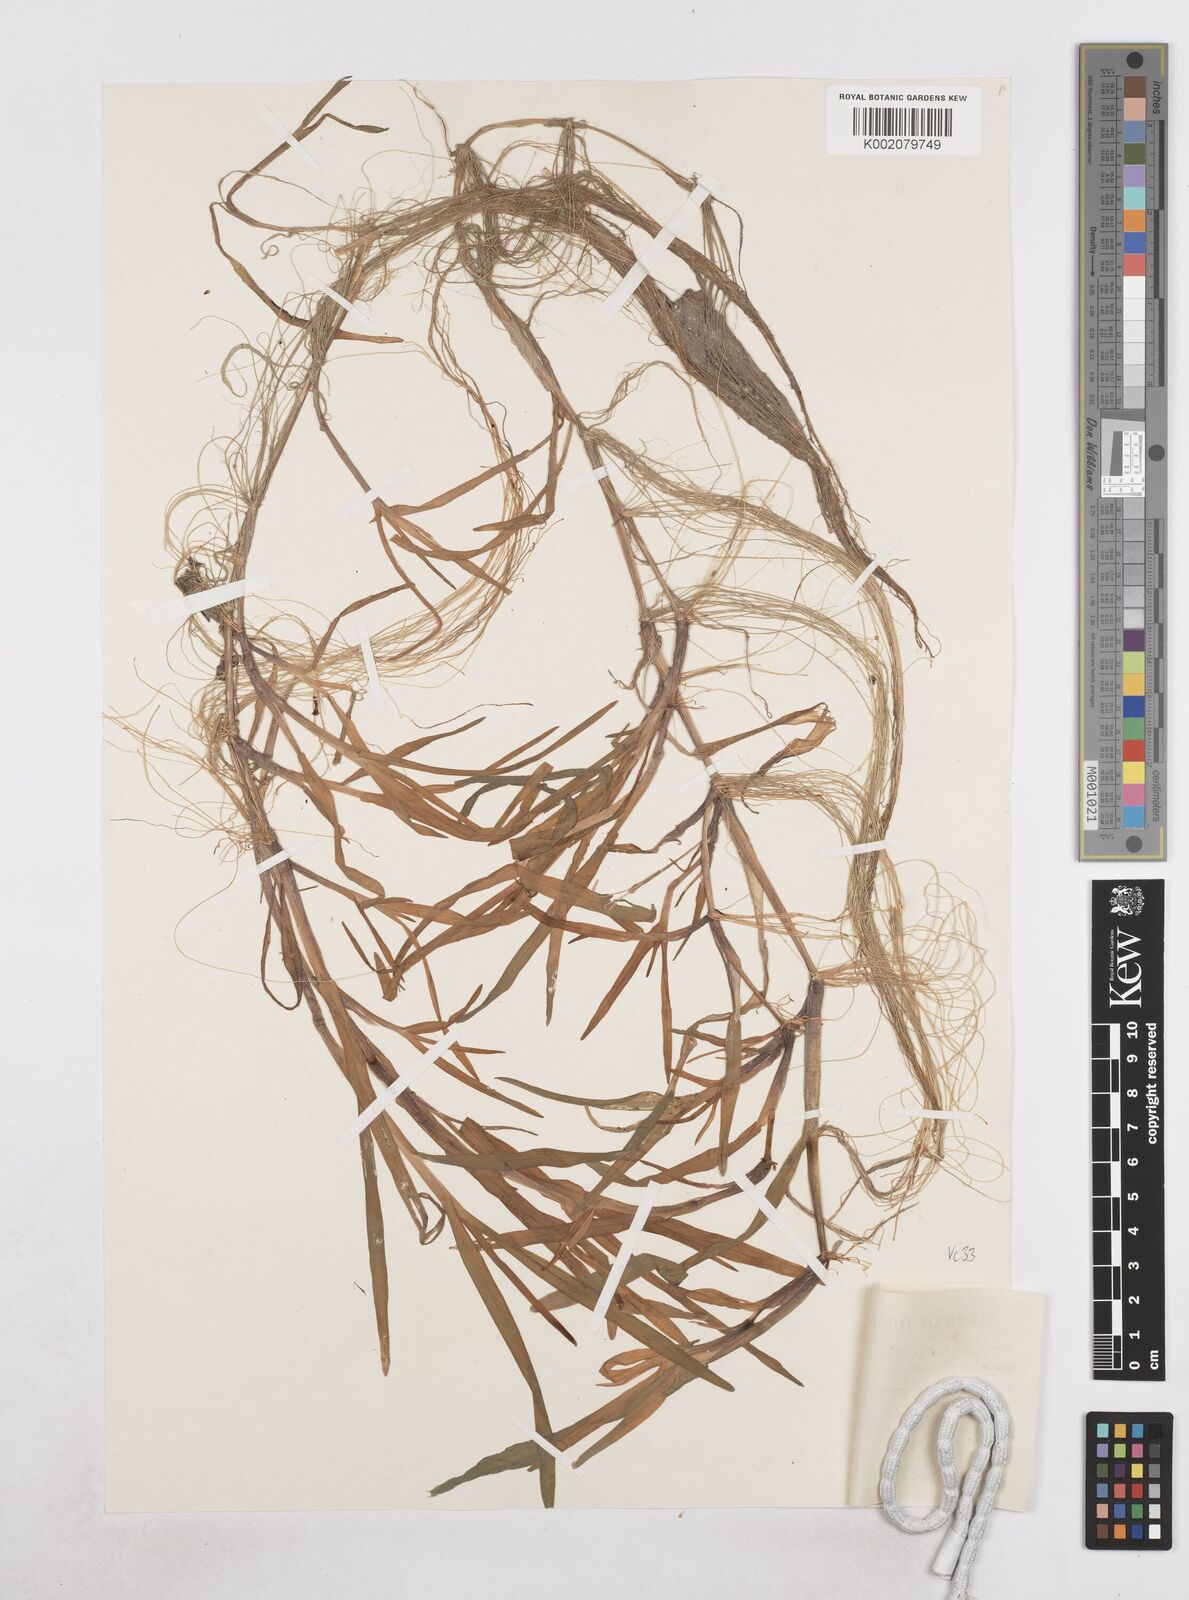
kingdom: Plantae
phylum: Tracheophyta
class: Liliopsida
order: Poales
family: Poaceae
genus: Catabrosa
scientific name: Catabrosa aquatica
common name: Whorl-grass
